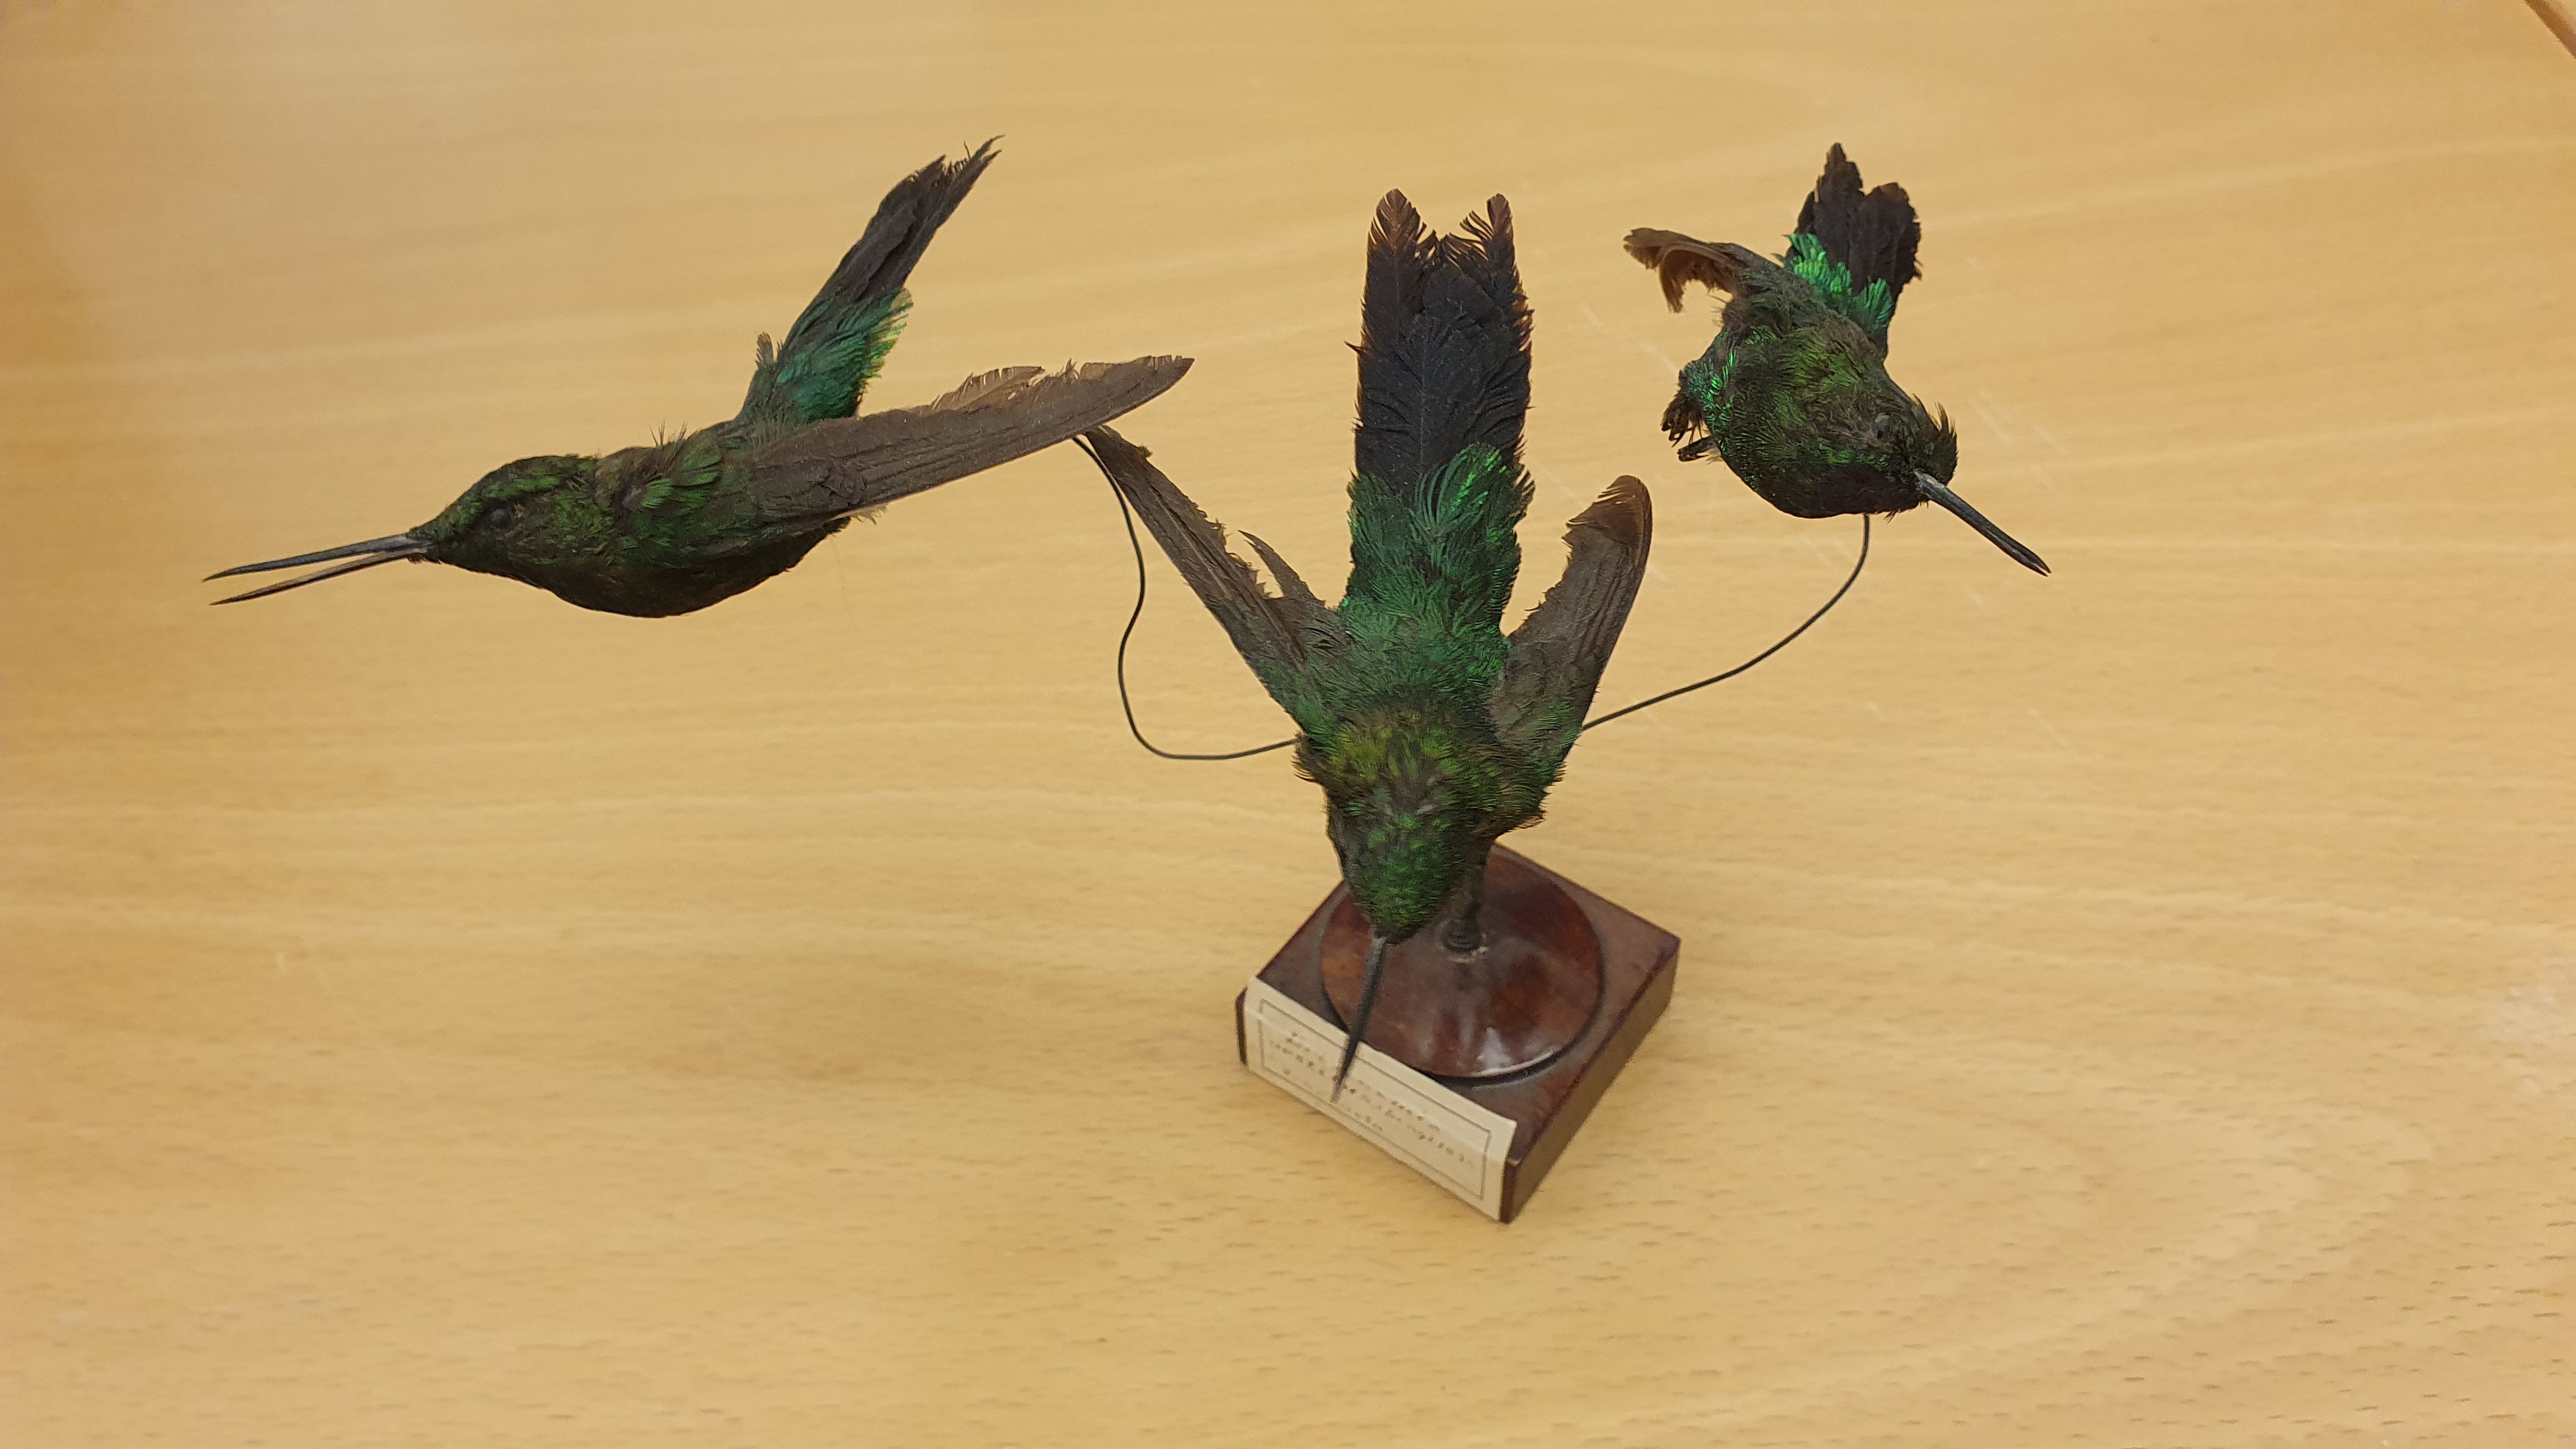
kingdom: Animalia
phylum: Chordata
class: Aves
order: Apodiformes
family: Trochilidae
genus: Eriocnemis
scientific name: Eriocnemis vestita
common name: Glowing puffleg
